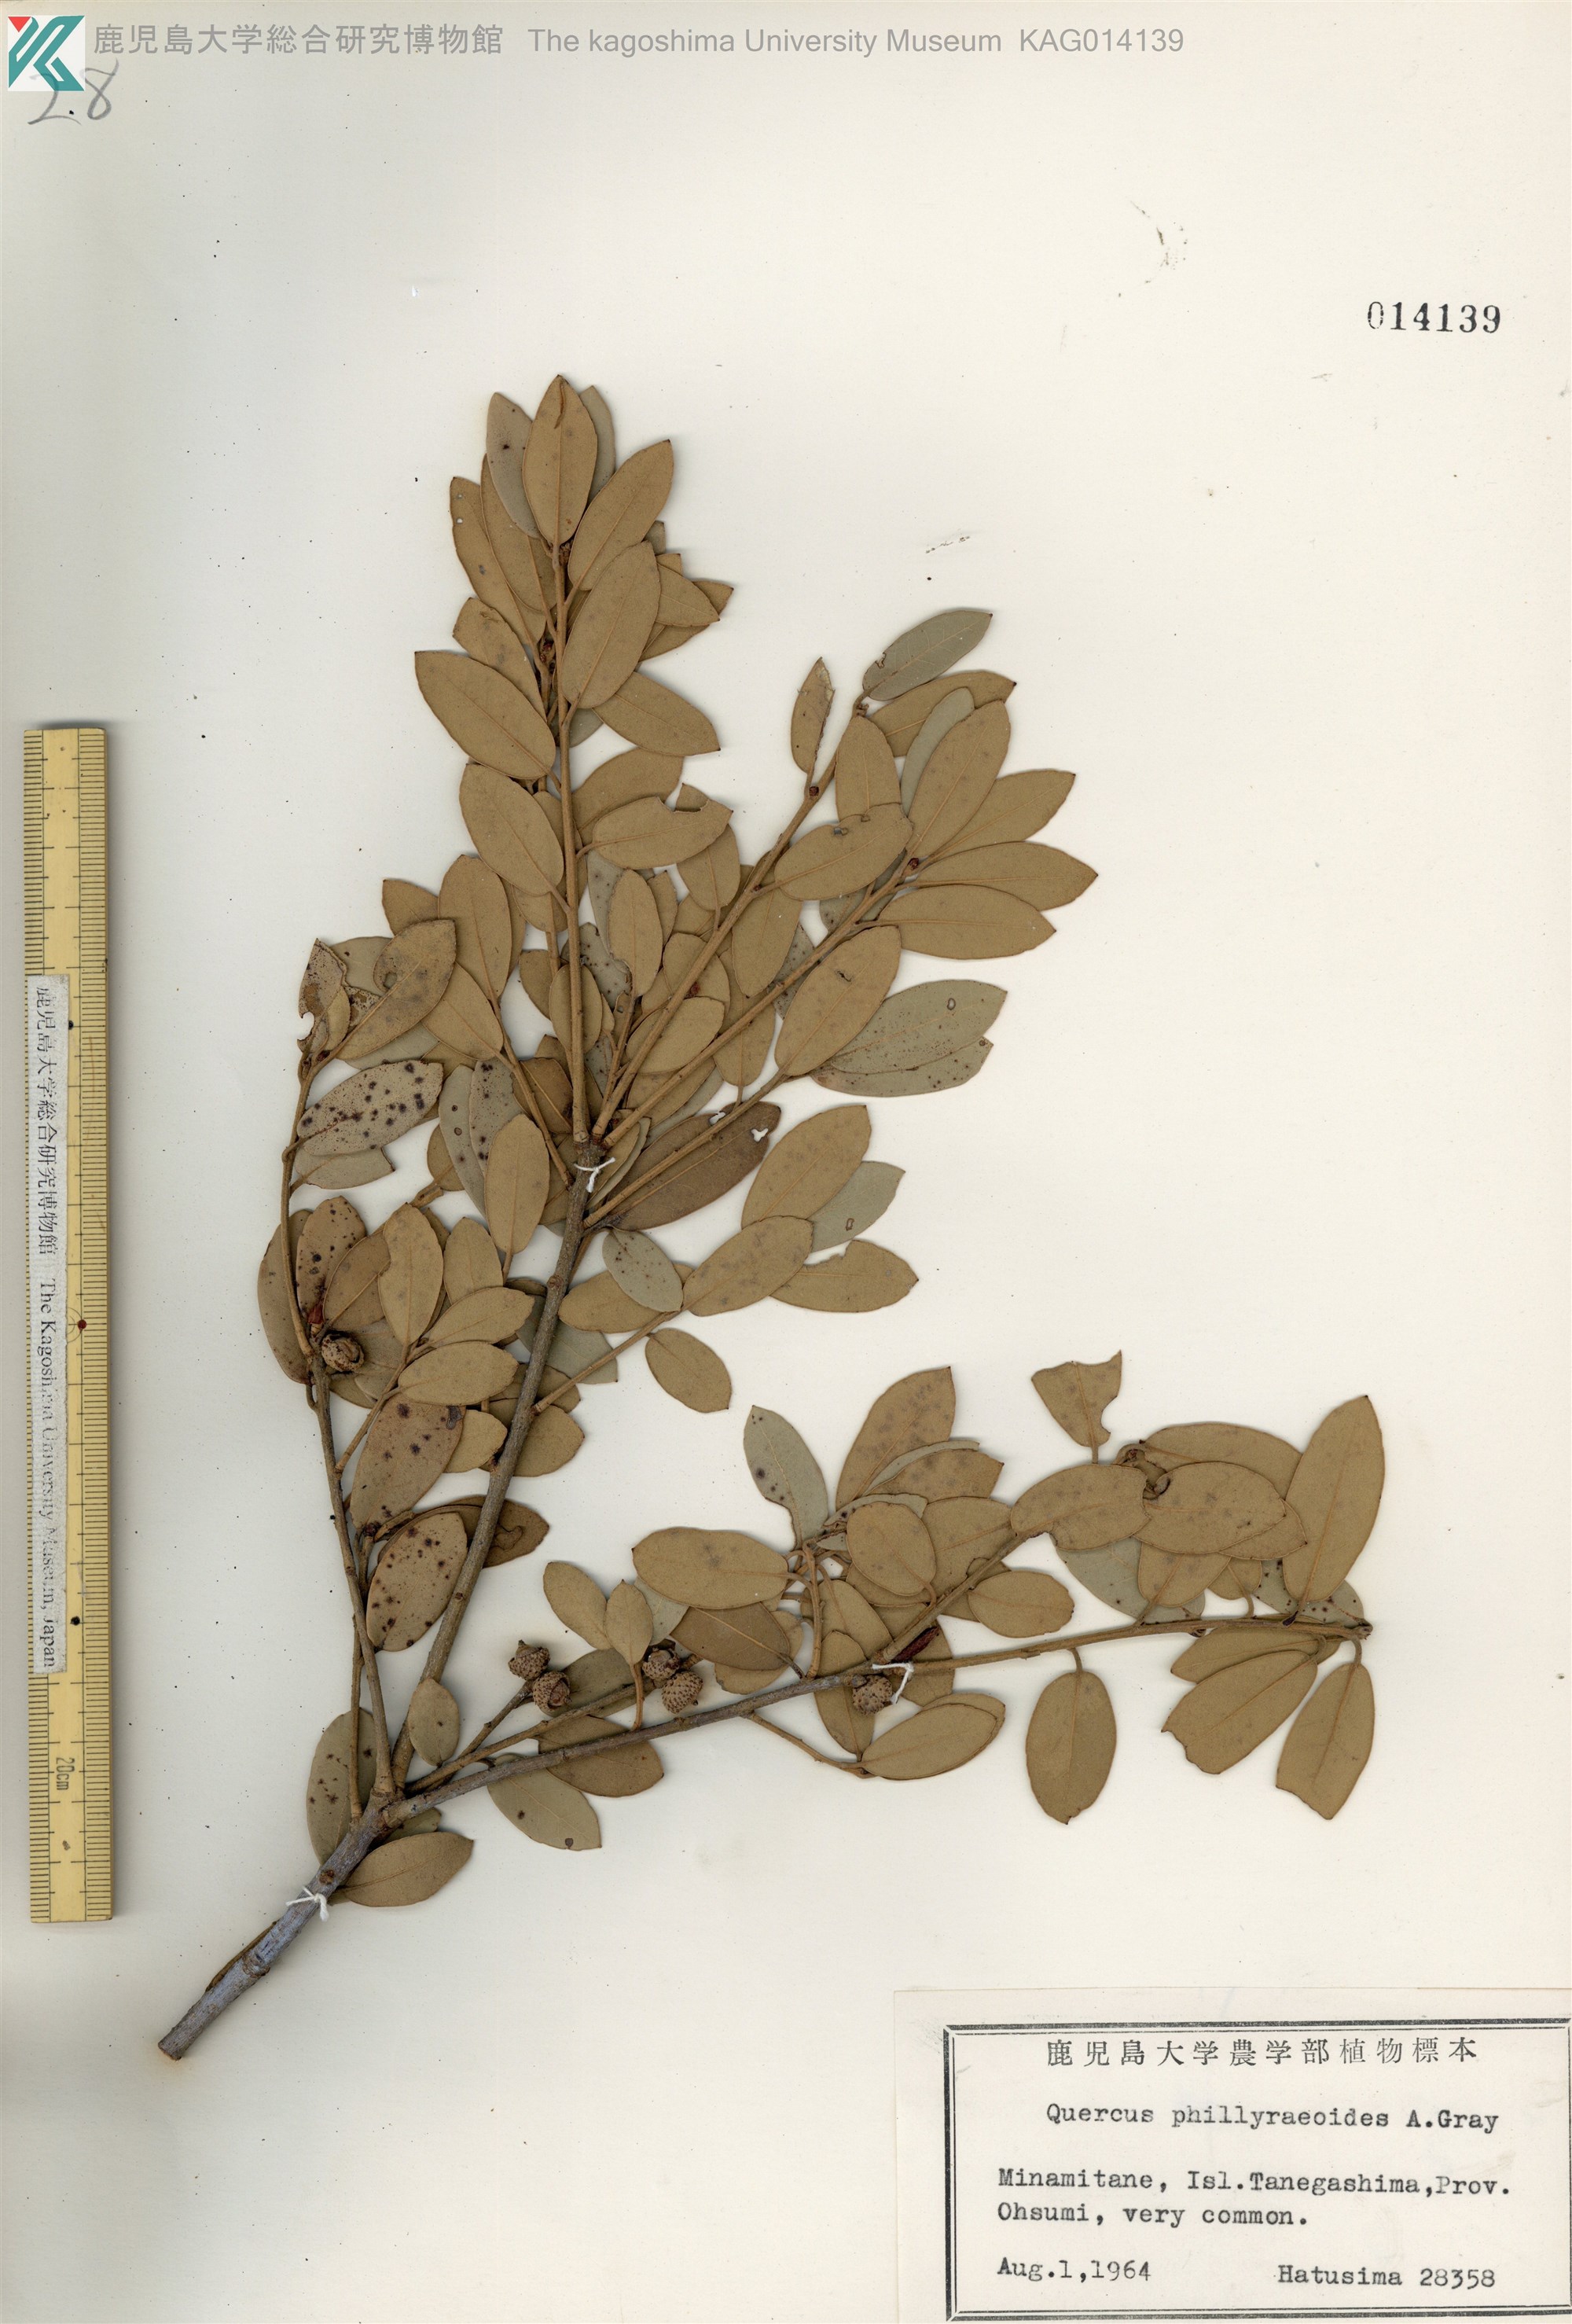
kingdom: Plantae
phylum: Tracheophyta
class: Magnoliopsida
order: Fagales
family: Fagaceae
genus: Quercus
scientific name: Quercus phillyreoides
